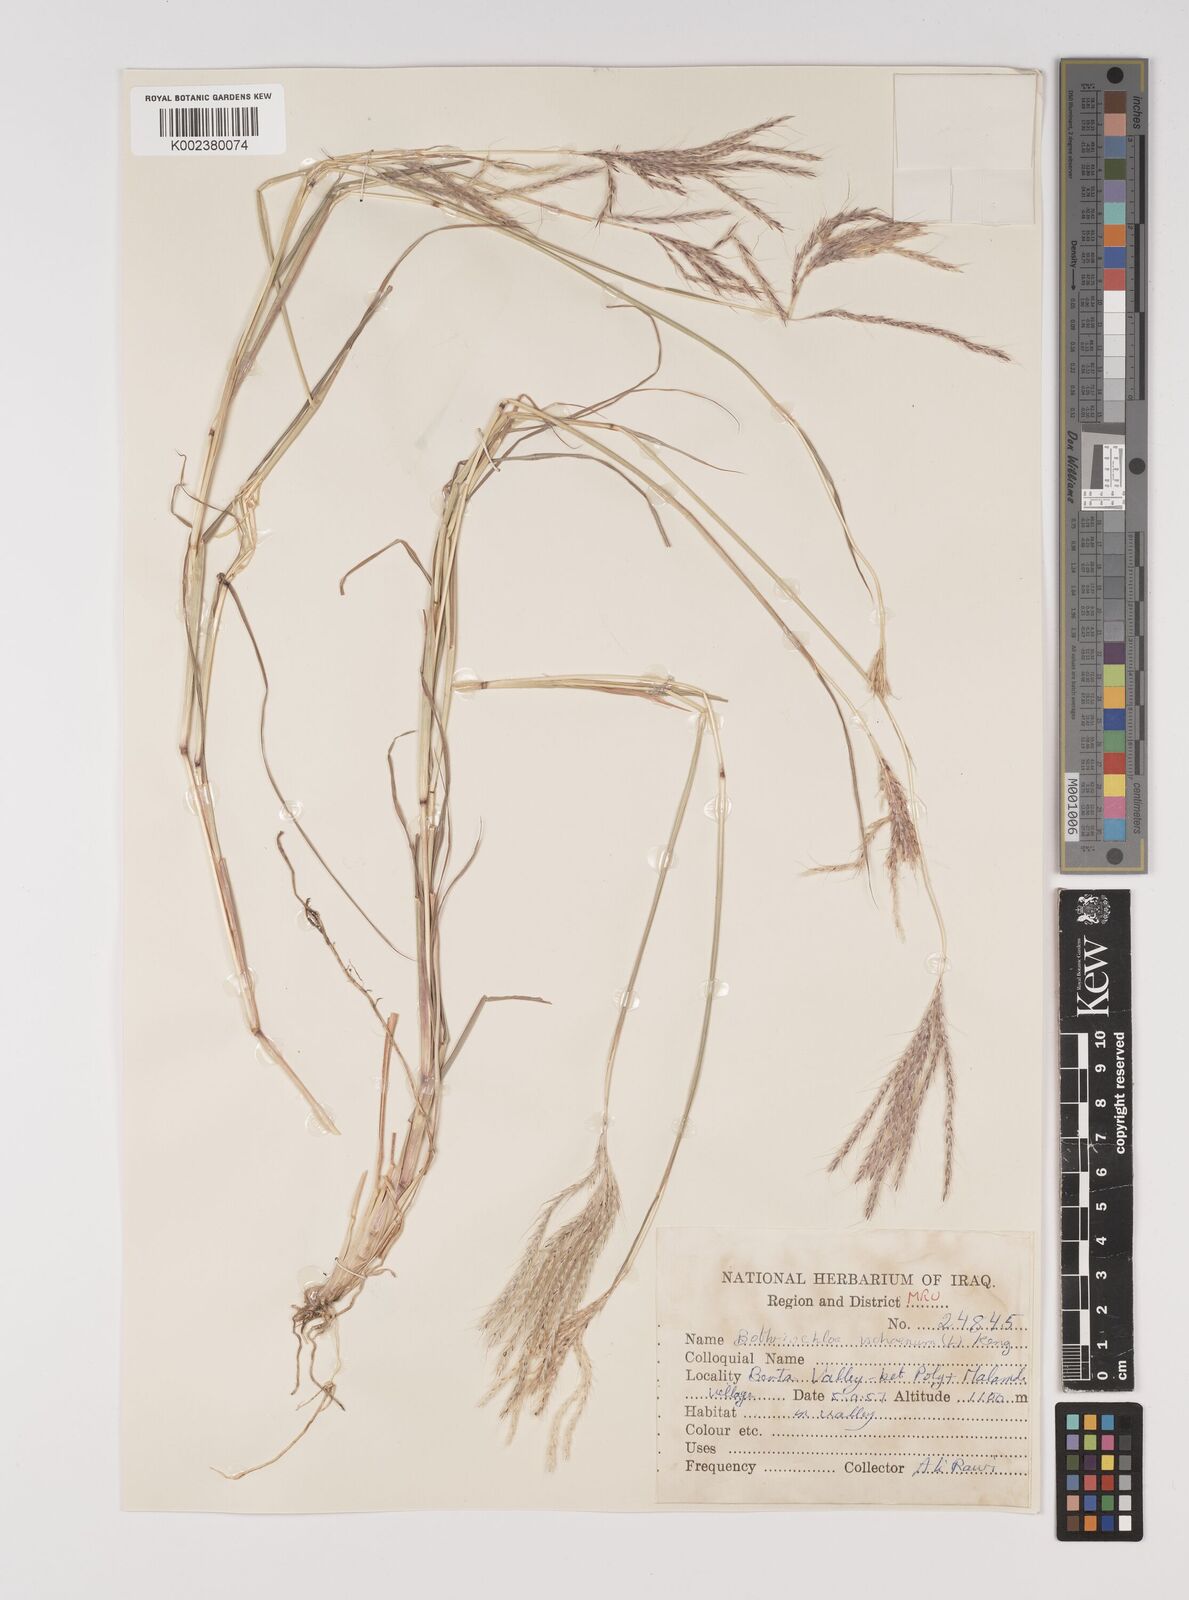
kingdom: Plantae
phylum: Tracheophyta
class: Liliopsida
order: Poales
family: Poaceae
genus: Bothriochloa
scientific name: Bothriochloa ischaemum
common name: Yellow bluestem
